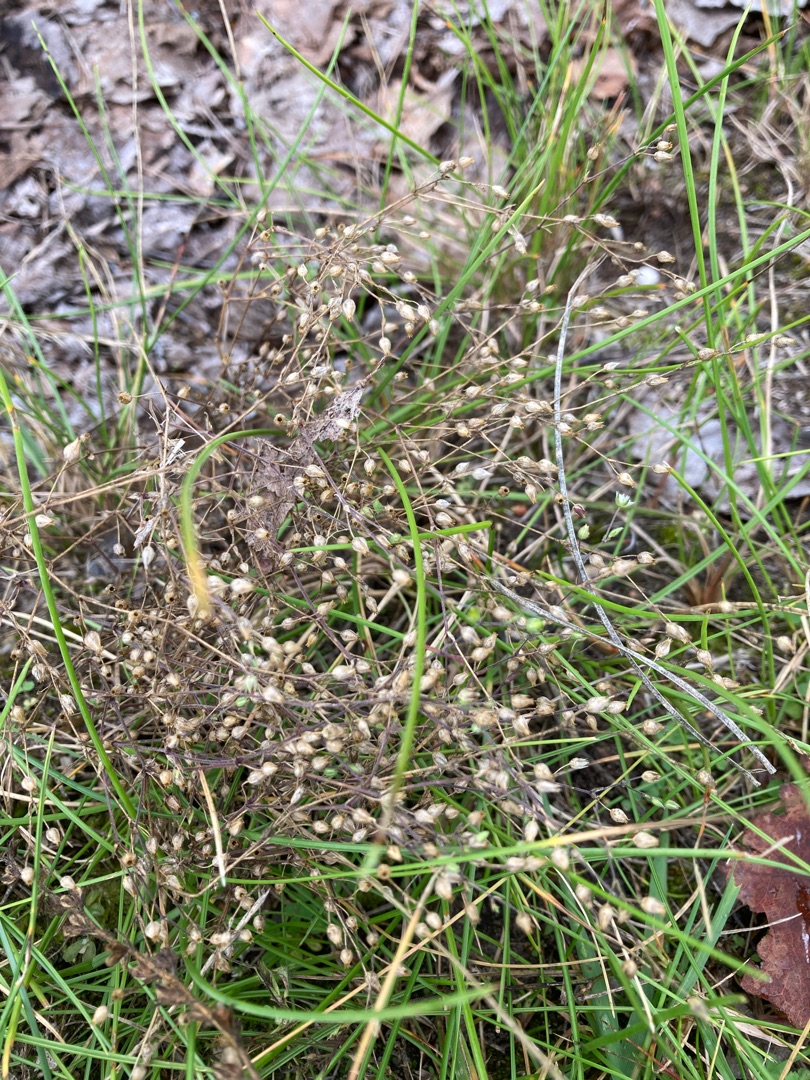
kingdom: Plantae
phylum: Tracheophyta
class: Magnoliopsida
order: Caryophyllales
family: Caryophyllaceae
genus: Arenaria
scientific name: Arenaria serpyllifolia
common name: Almindelig markarve
